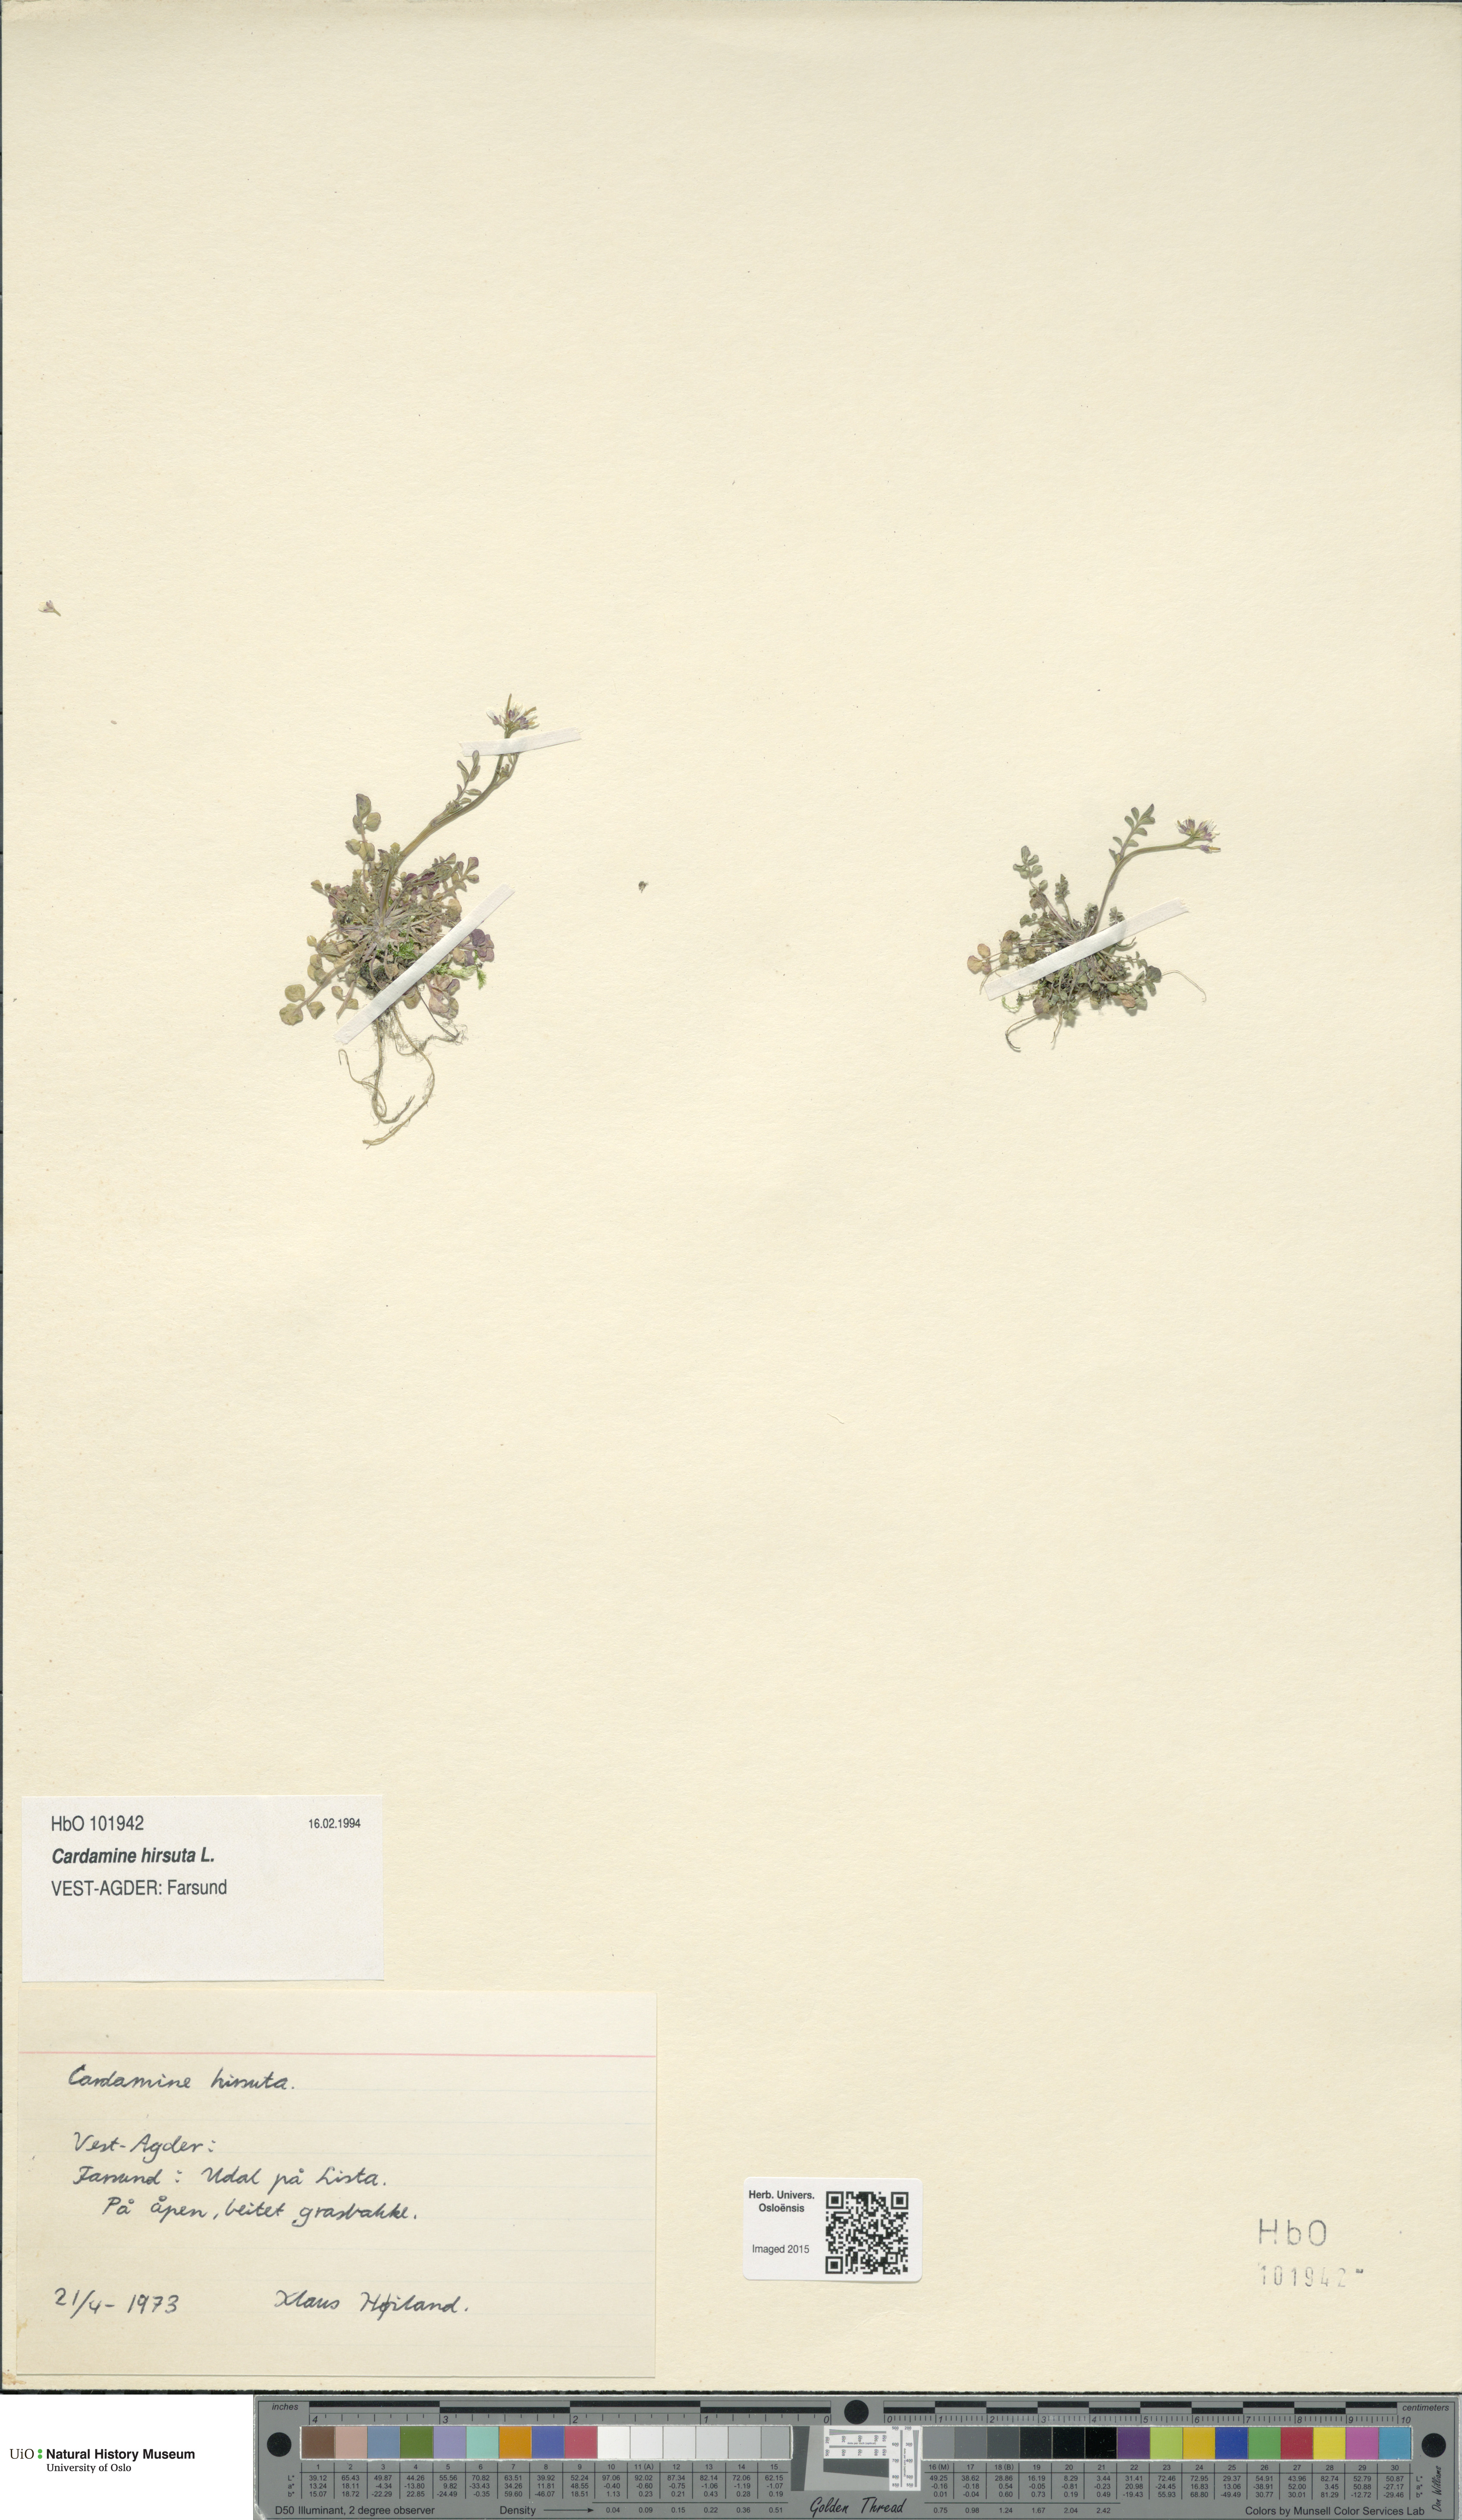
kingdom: Plantae
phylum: Tracheophyta
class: Magnoliopsida
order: Brassicales
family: Brassicaceae
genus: Cardamine
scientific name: Cardamine hirsuta
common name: Hairy bittercress
